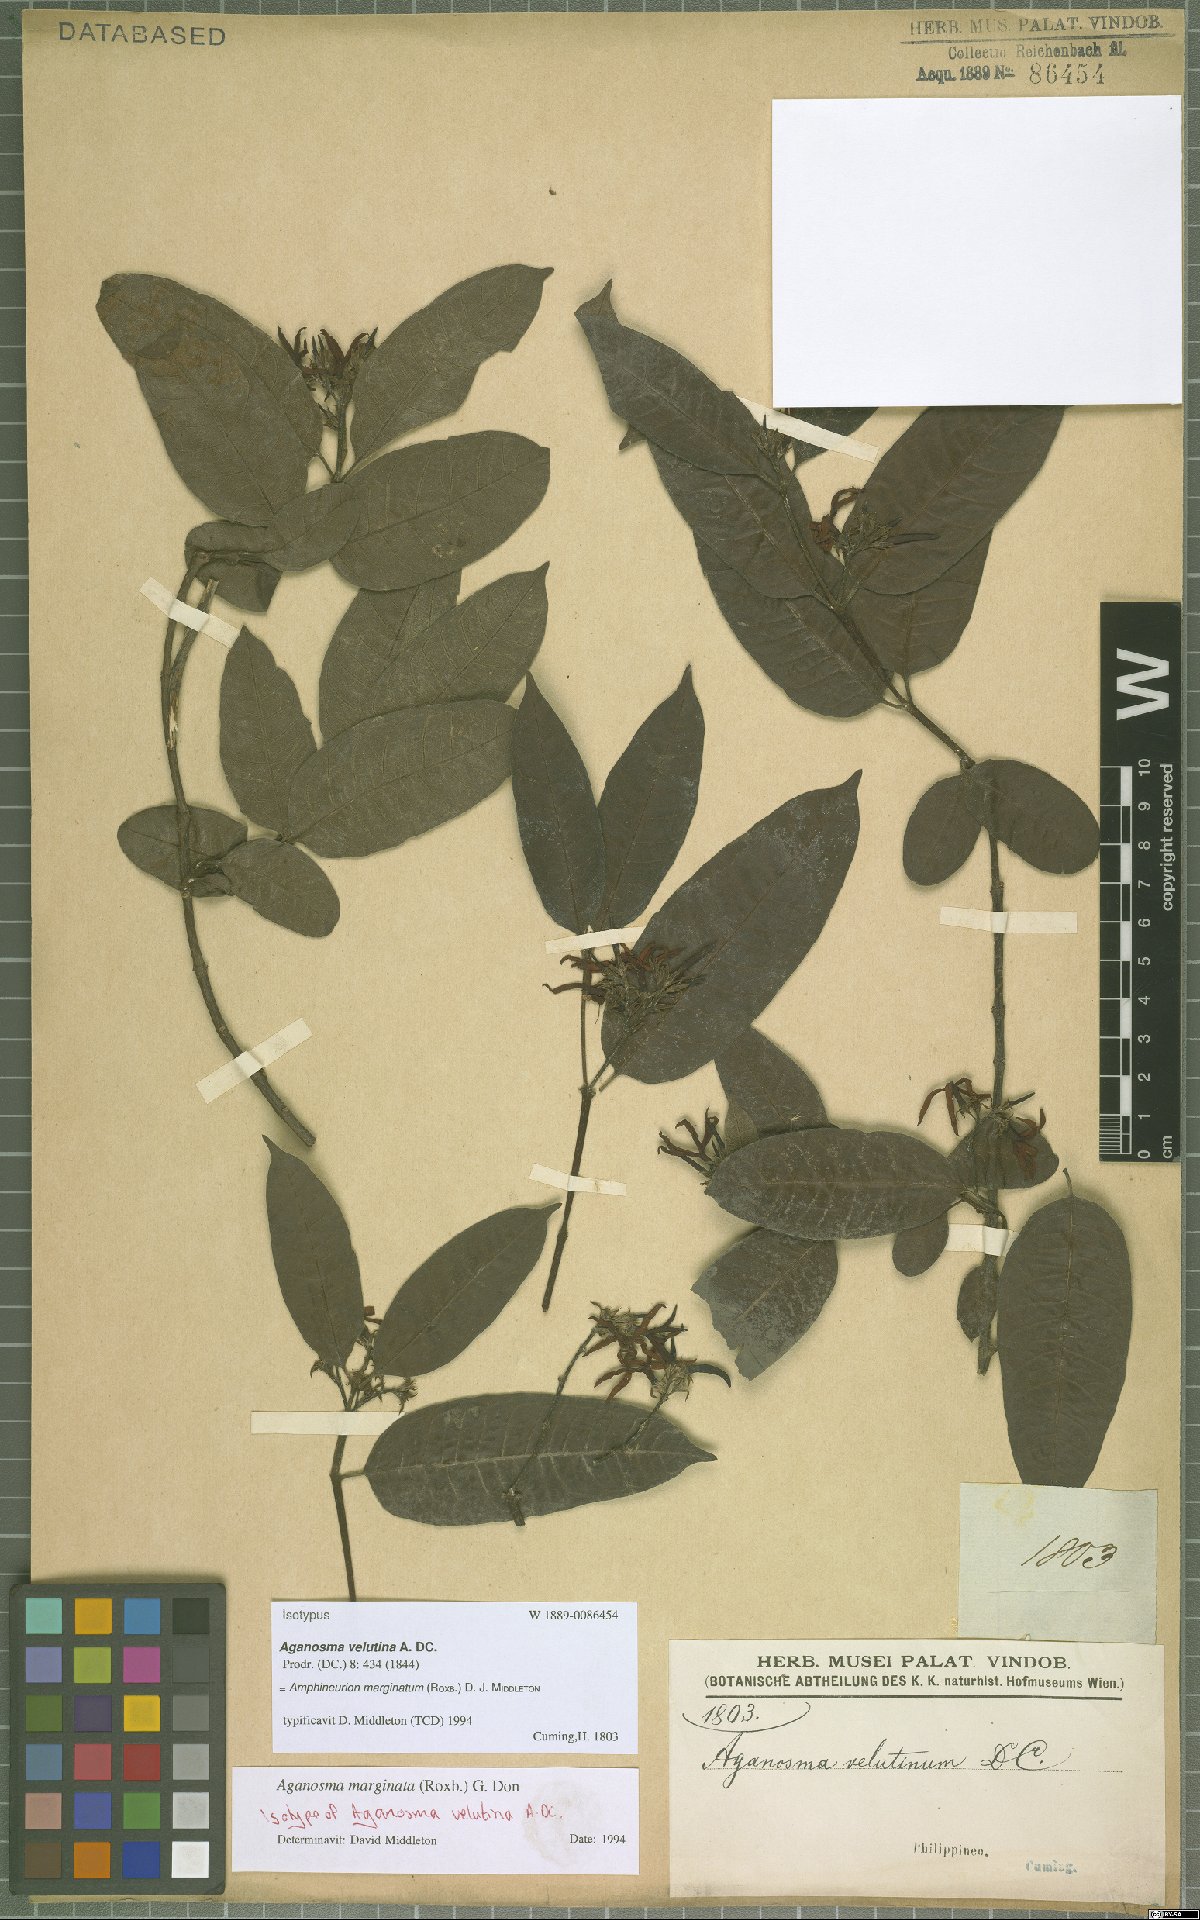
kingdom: Plantae
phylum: Tracheophyta
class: Magnoliopsida
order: Gentianales
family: Apocynaceae
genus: Amphineurion
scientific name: Amphineurion marginatum
